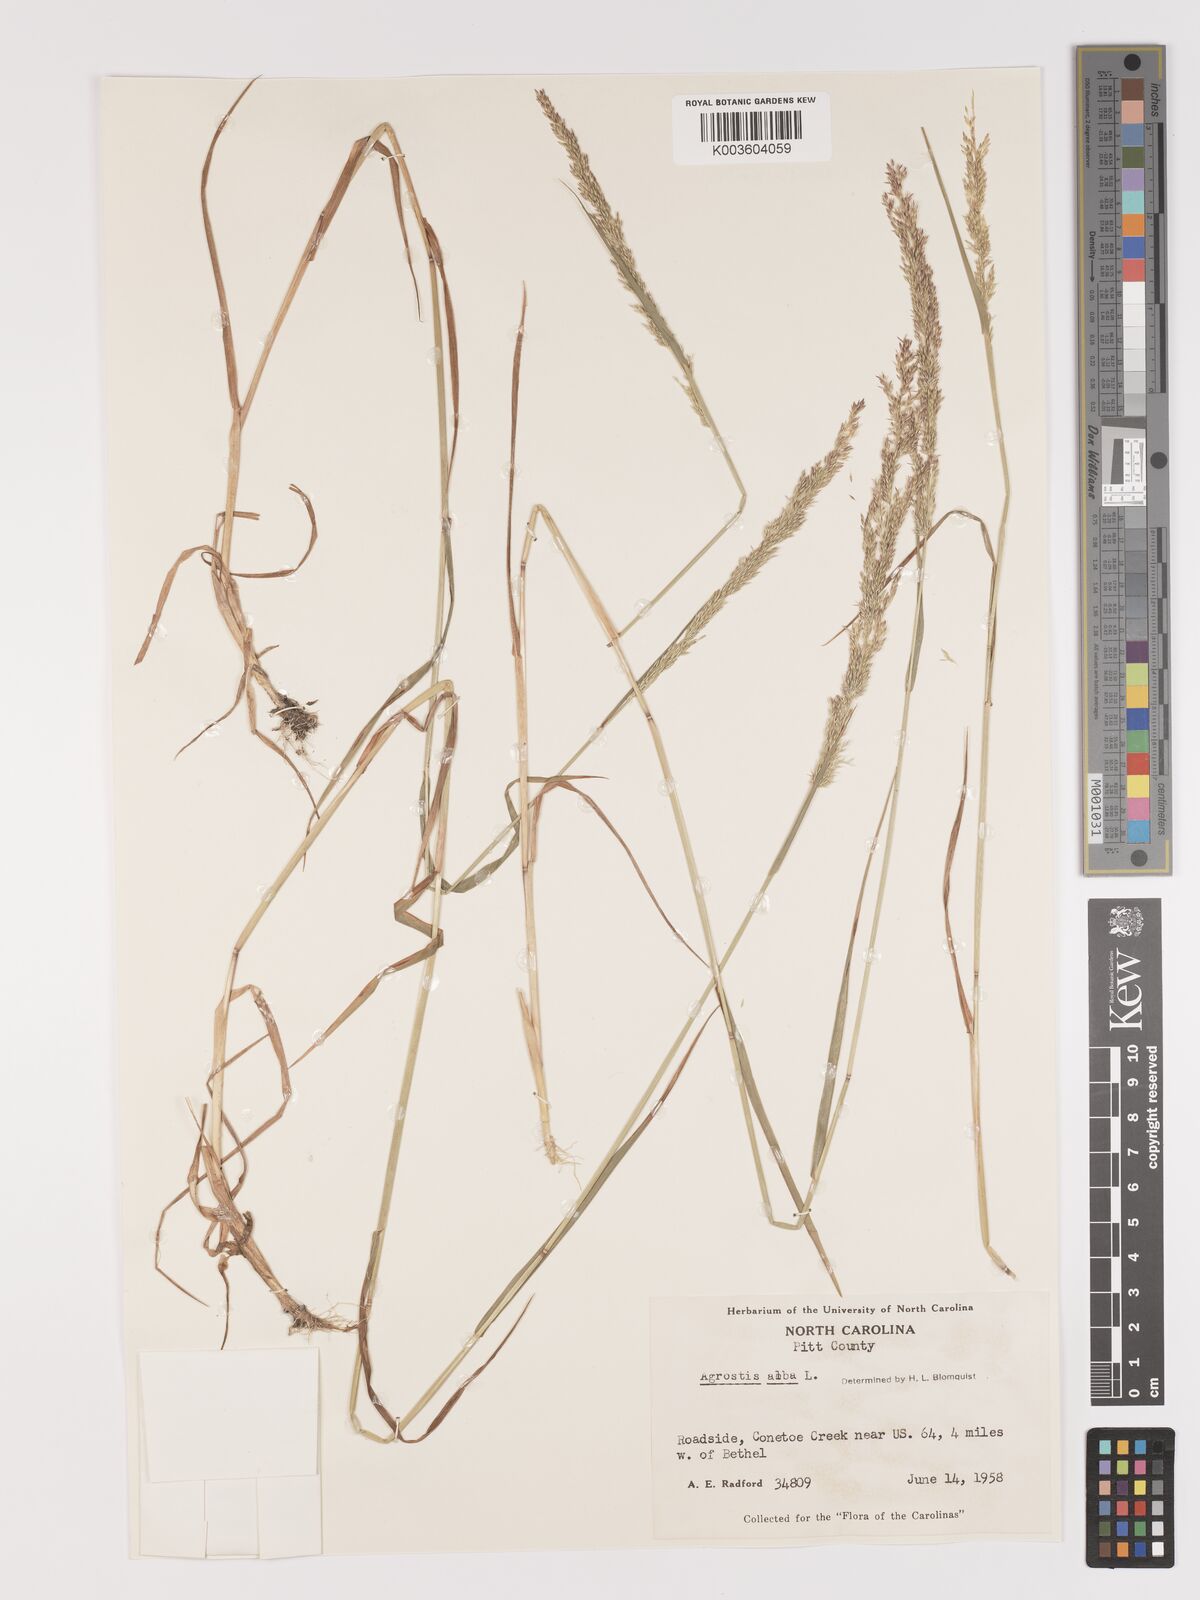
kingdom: Plantae
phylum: Tracheophyta
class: Liliopsida
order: Poales
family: Poaceae
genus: Agrostis
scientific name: Agrostis gigantea
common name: Black bent
